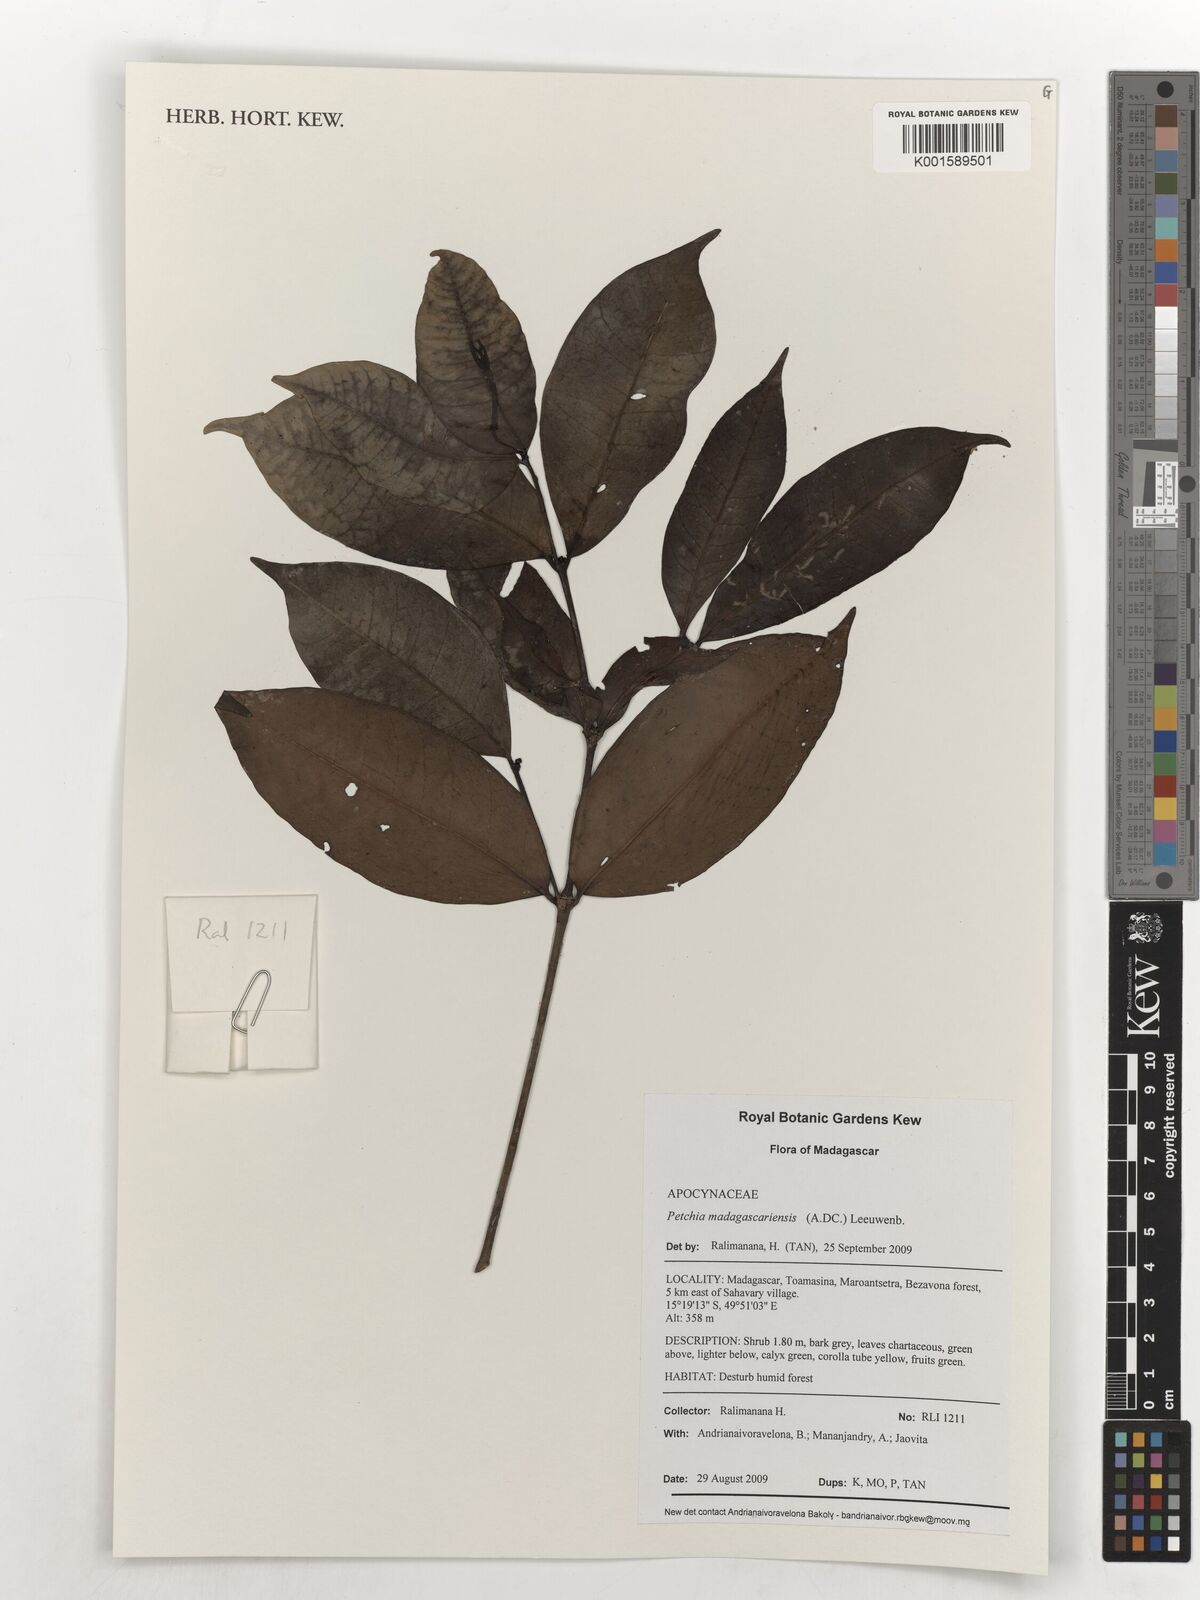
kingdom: Plantae
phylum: Tracheophyta
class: Magnoliopsida
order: Gentianales
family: Apocynaceae
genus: Petchia
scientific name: Petchia madagascariensis
